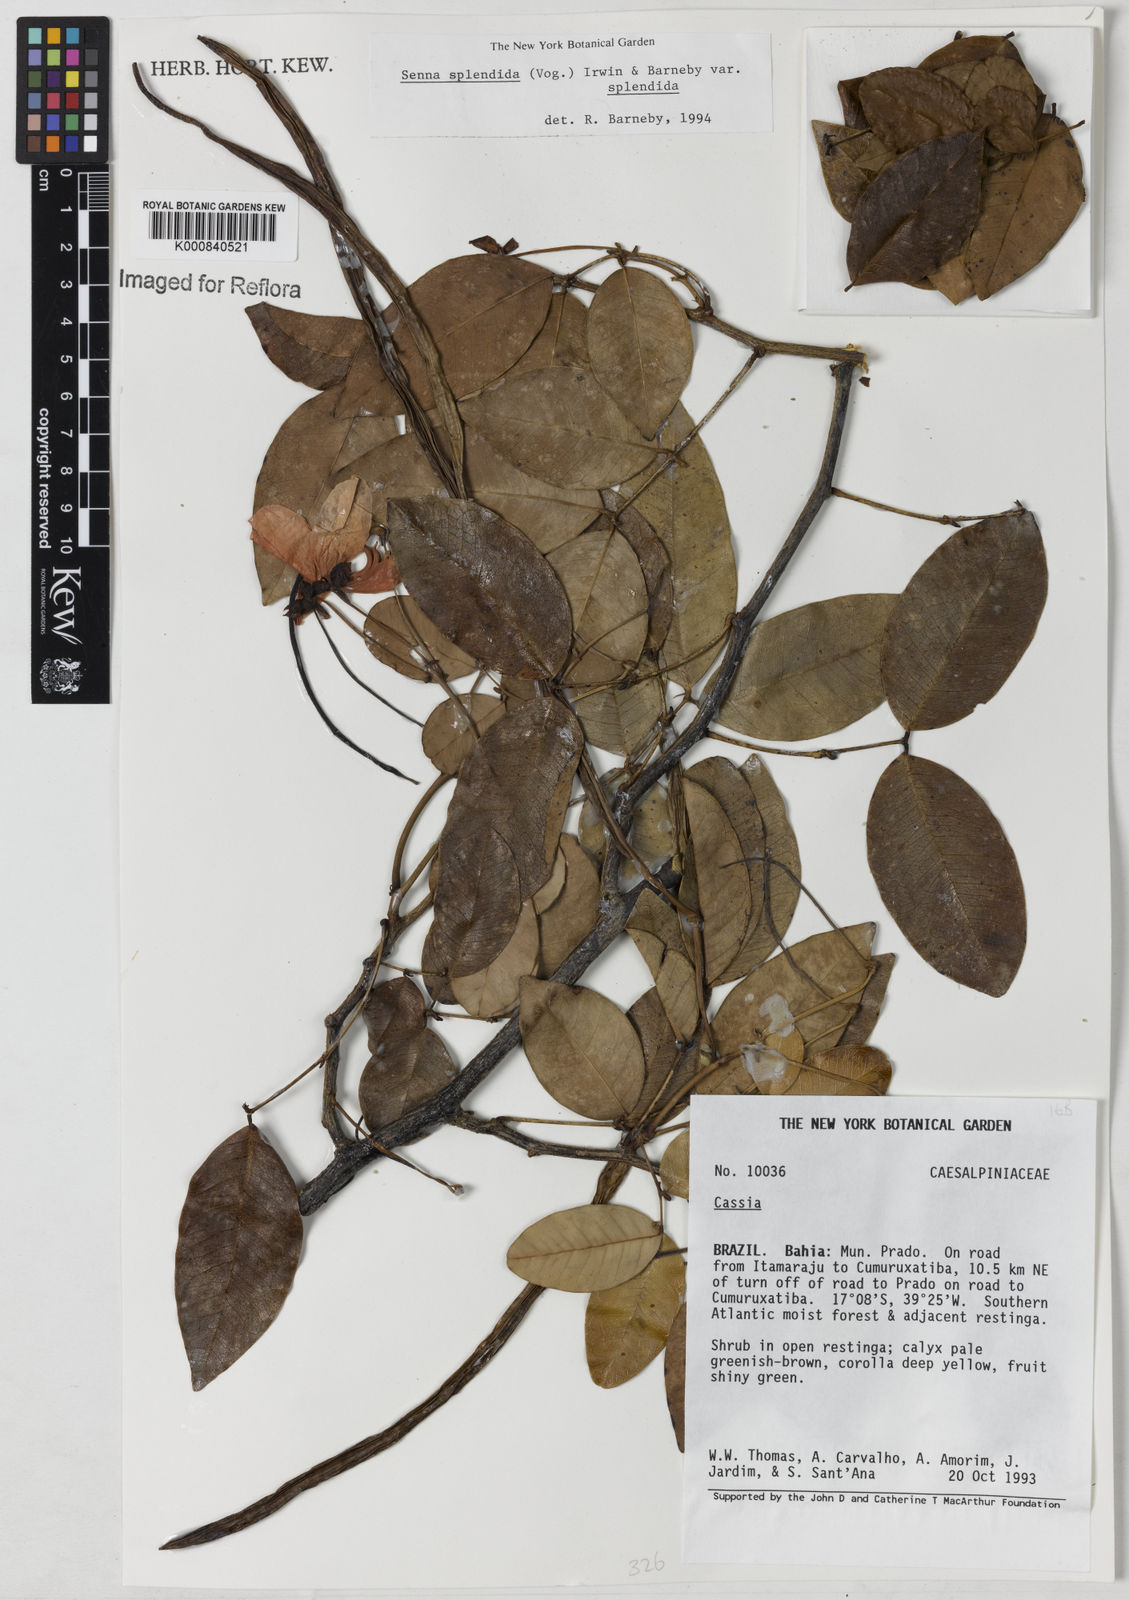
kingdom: Plantae
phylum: Tracheophyta
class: Magnoliopsida
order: Fabales
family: Fabaceae
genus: Senna
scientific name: Senna splendida
